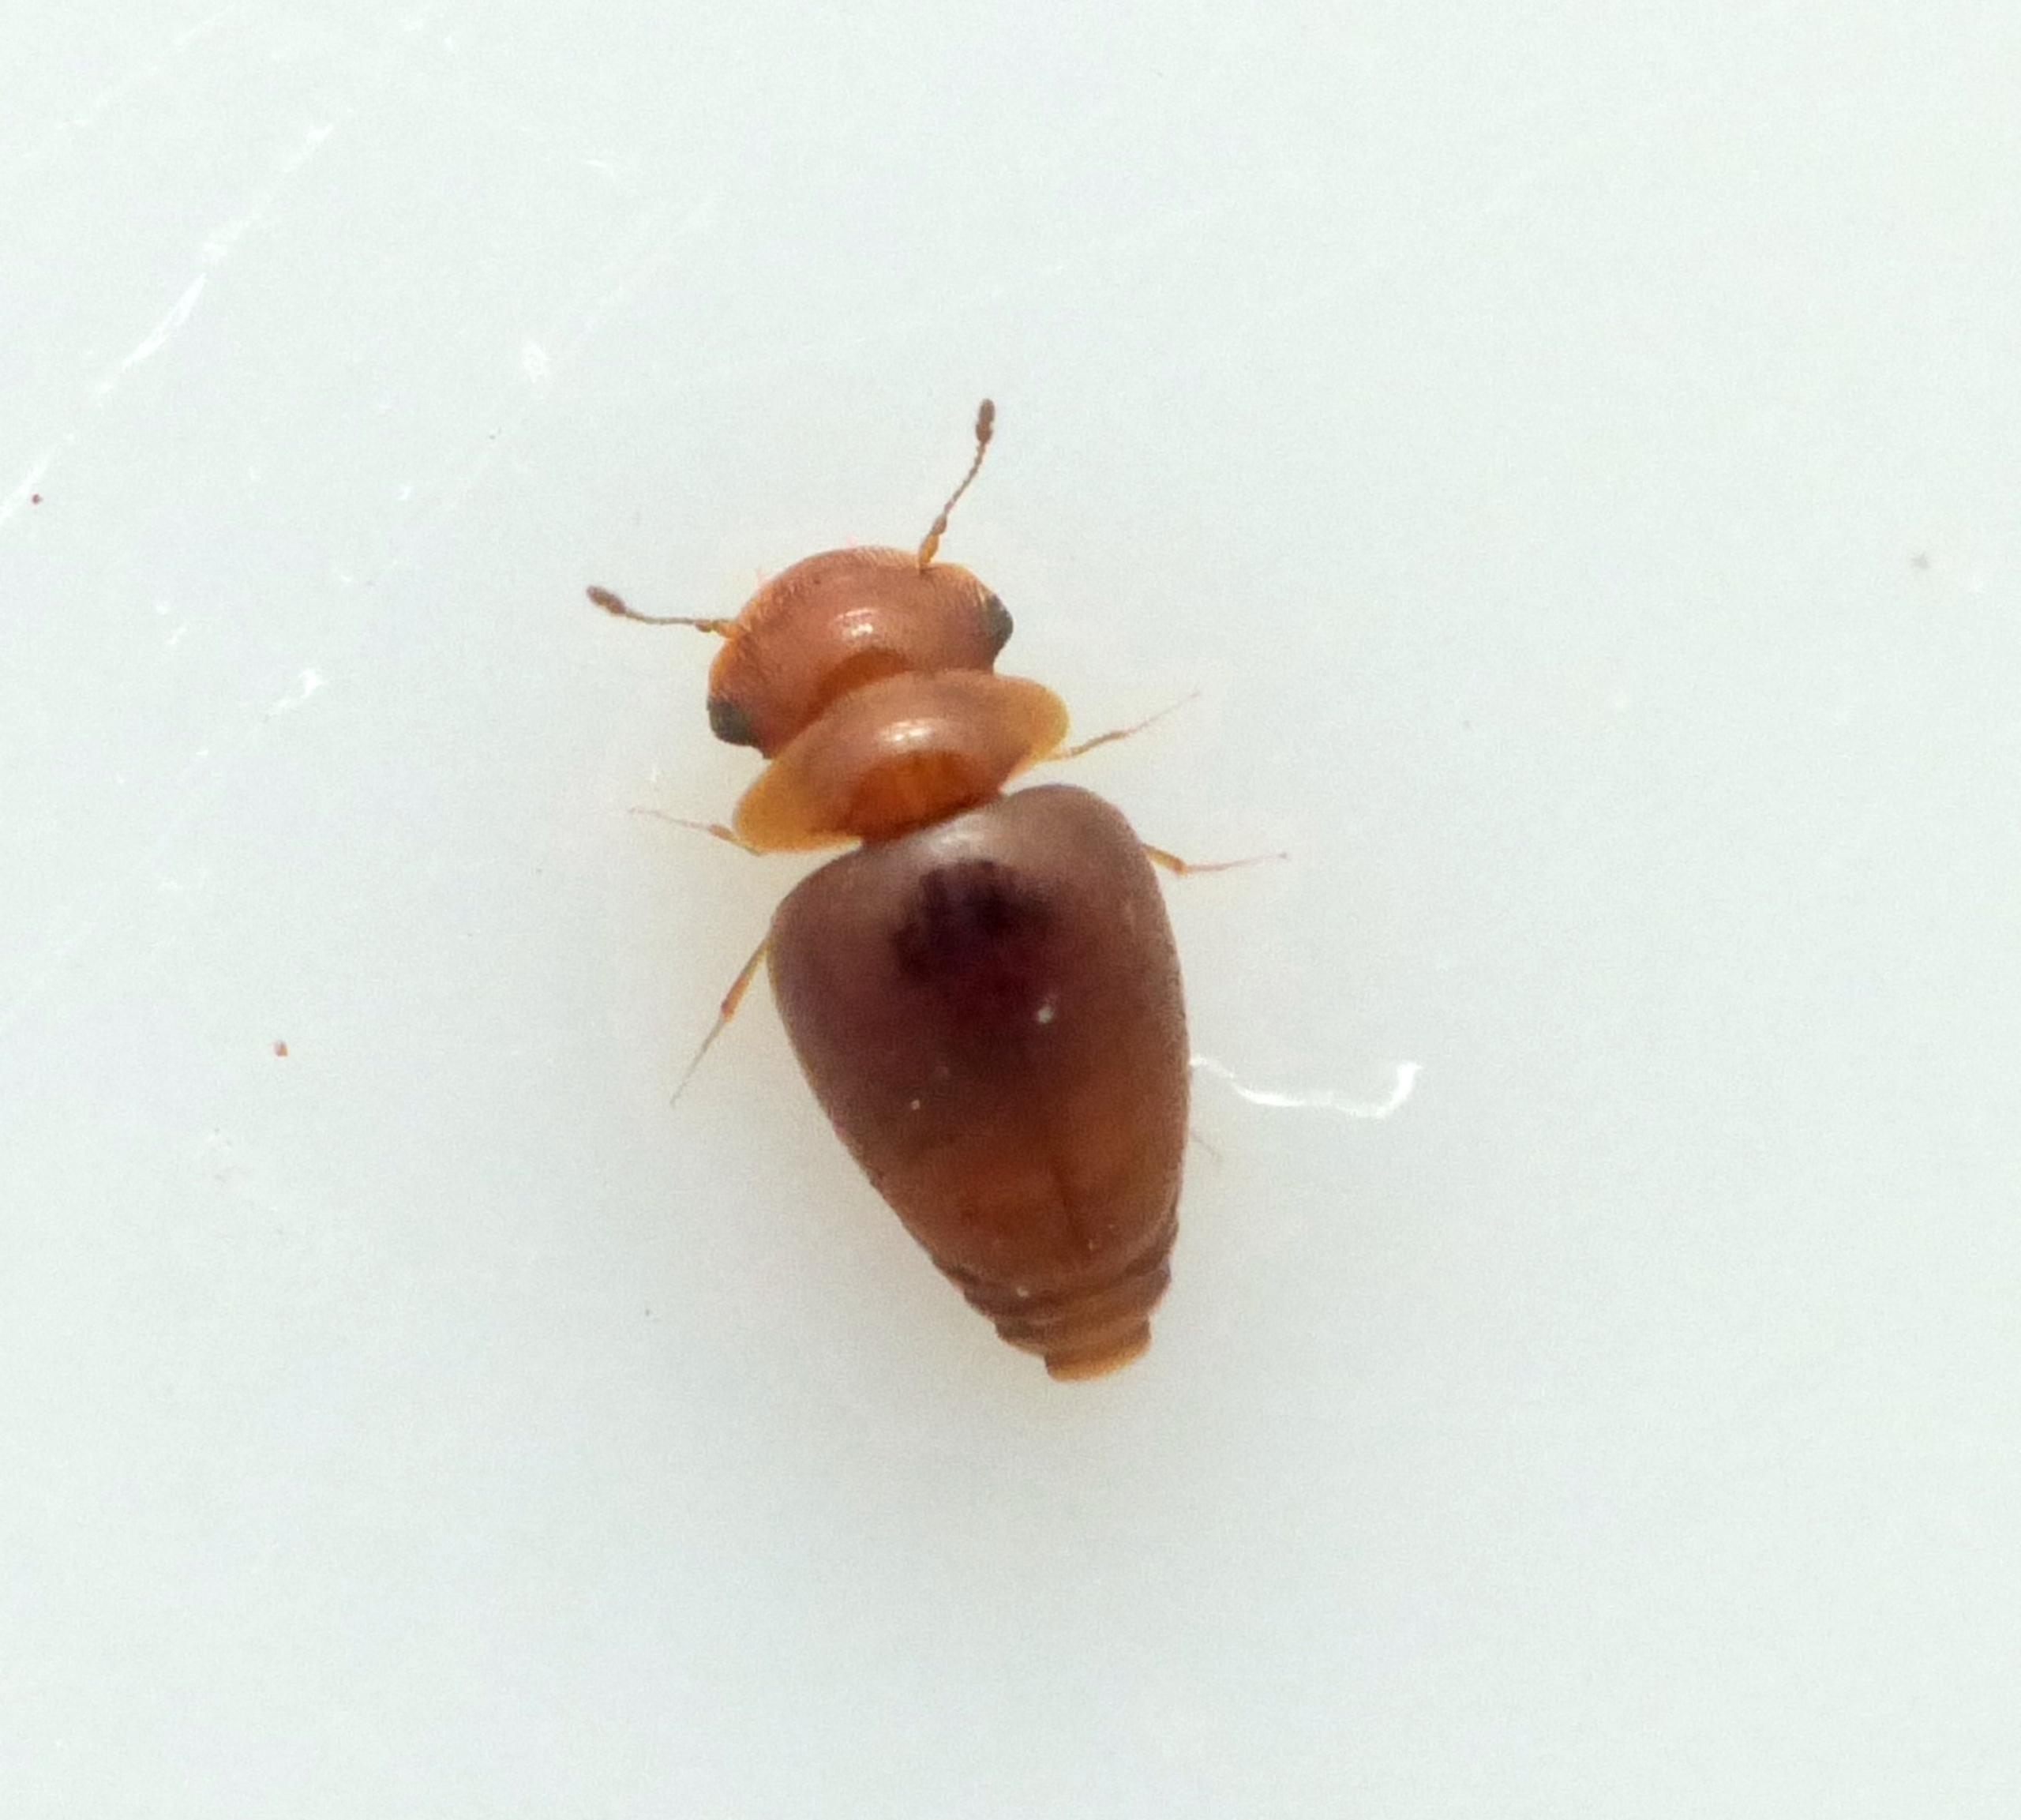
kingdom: Animalia
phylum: Arthropoda
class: Insecta
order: Coleoptera
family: Clambidae
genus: Calyptomerus
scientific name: Calyptomerus dubius
